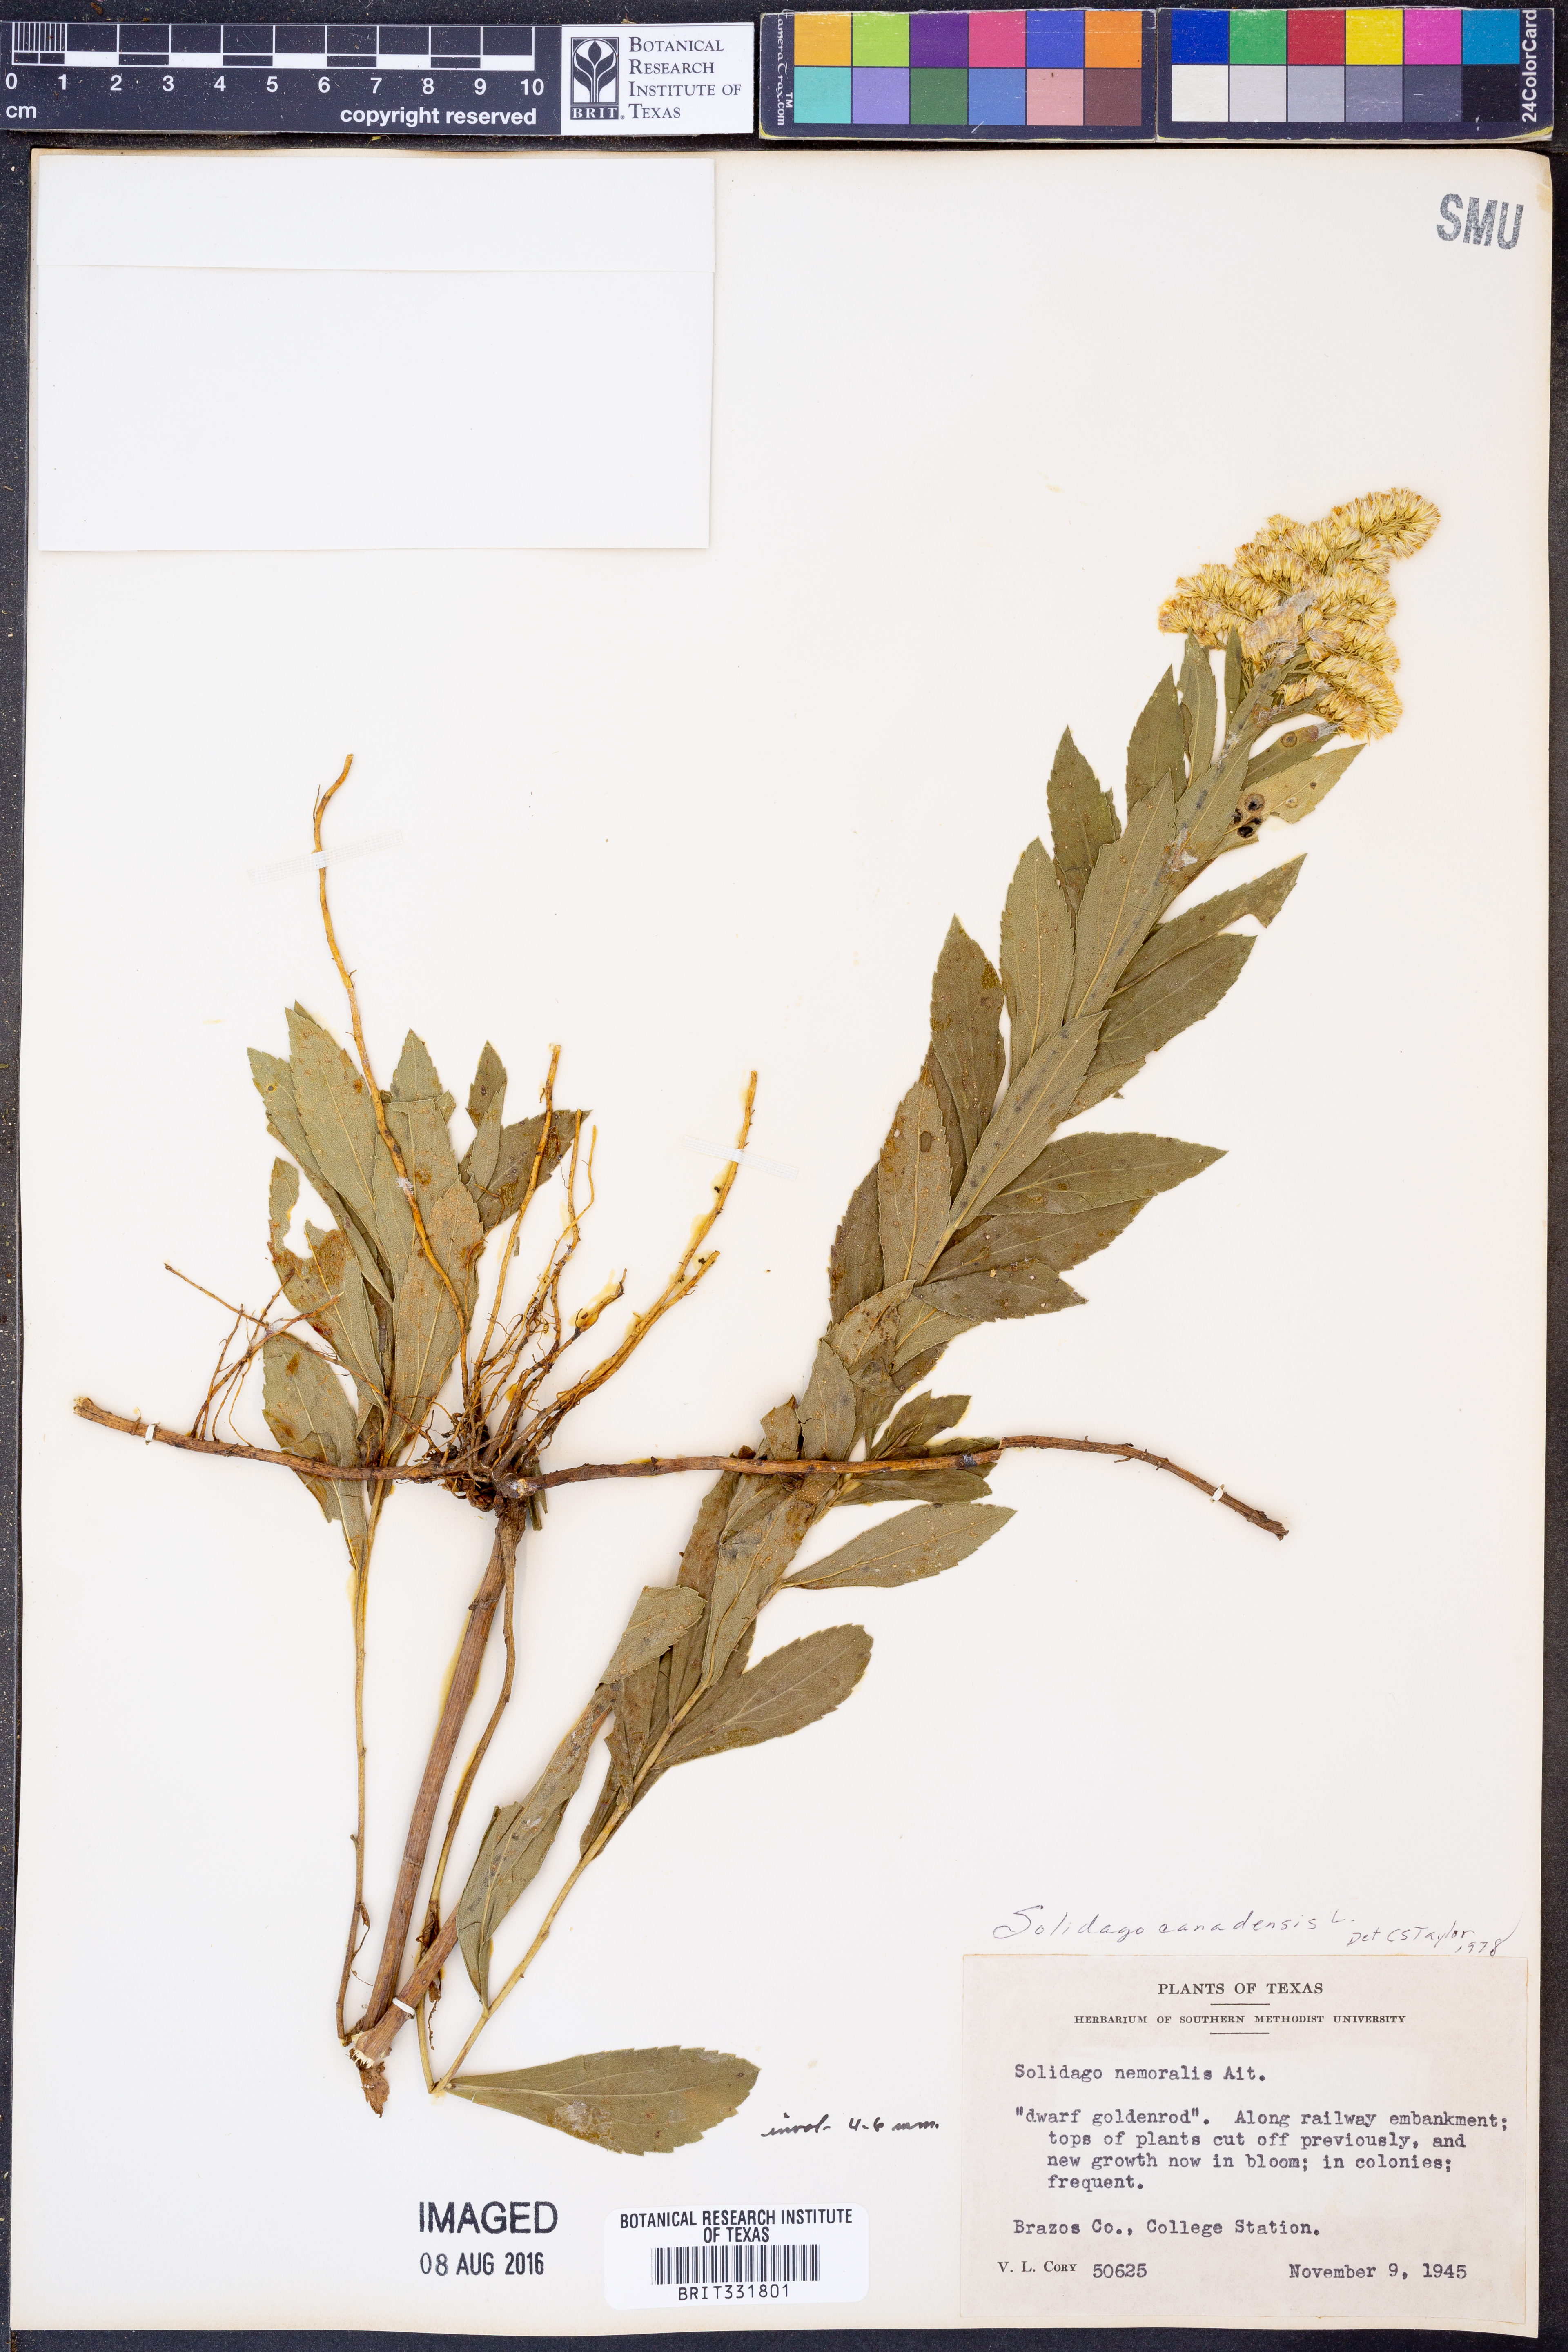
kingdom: Plantae
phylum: Tracheophyta
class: Magnoliopsida
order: Asterales
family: Asteraceae
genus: Solidago
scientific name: Solidago canadensis
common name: Canada goldenrod
